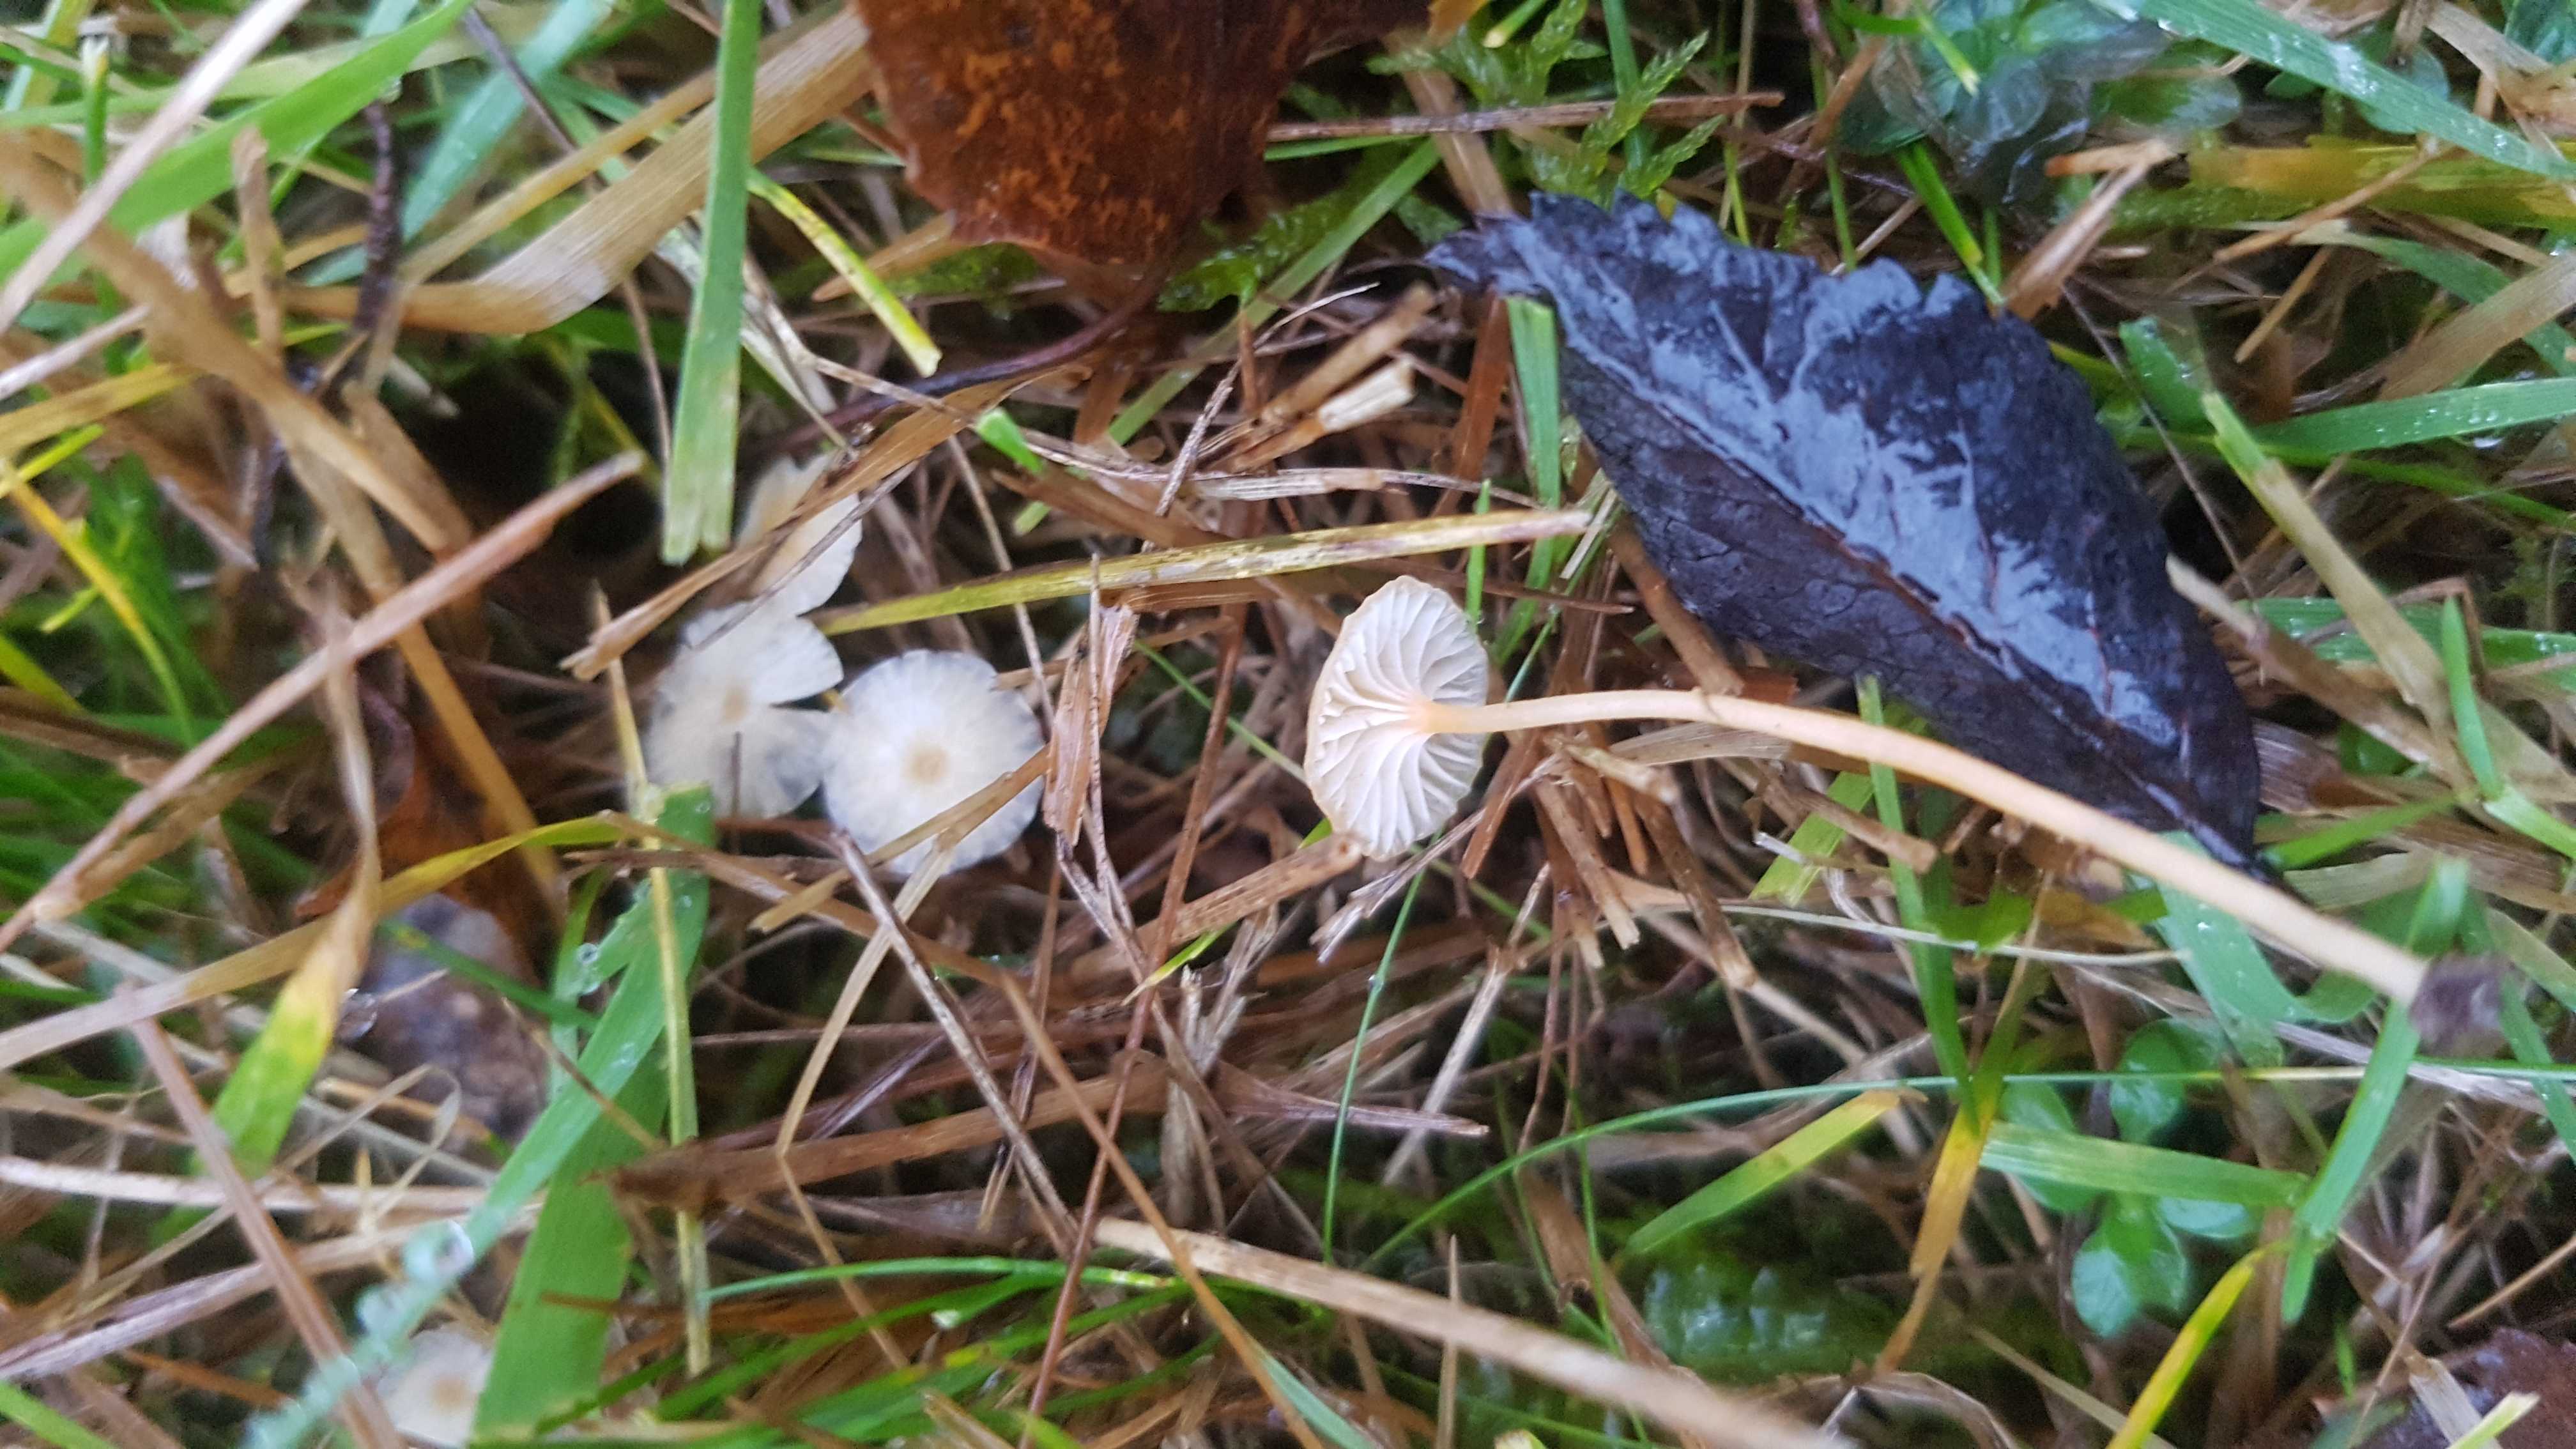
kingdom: Fungi
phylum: Basidiomycota
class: Agaricomycetes
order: Hymenochaetales
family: Rickenellaceae
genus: Rickenella
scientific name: Rickenella fibula
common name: orange mosnavlehat
